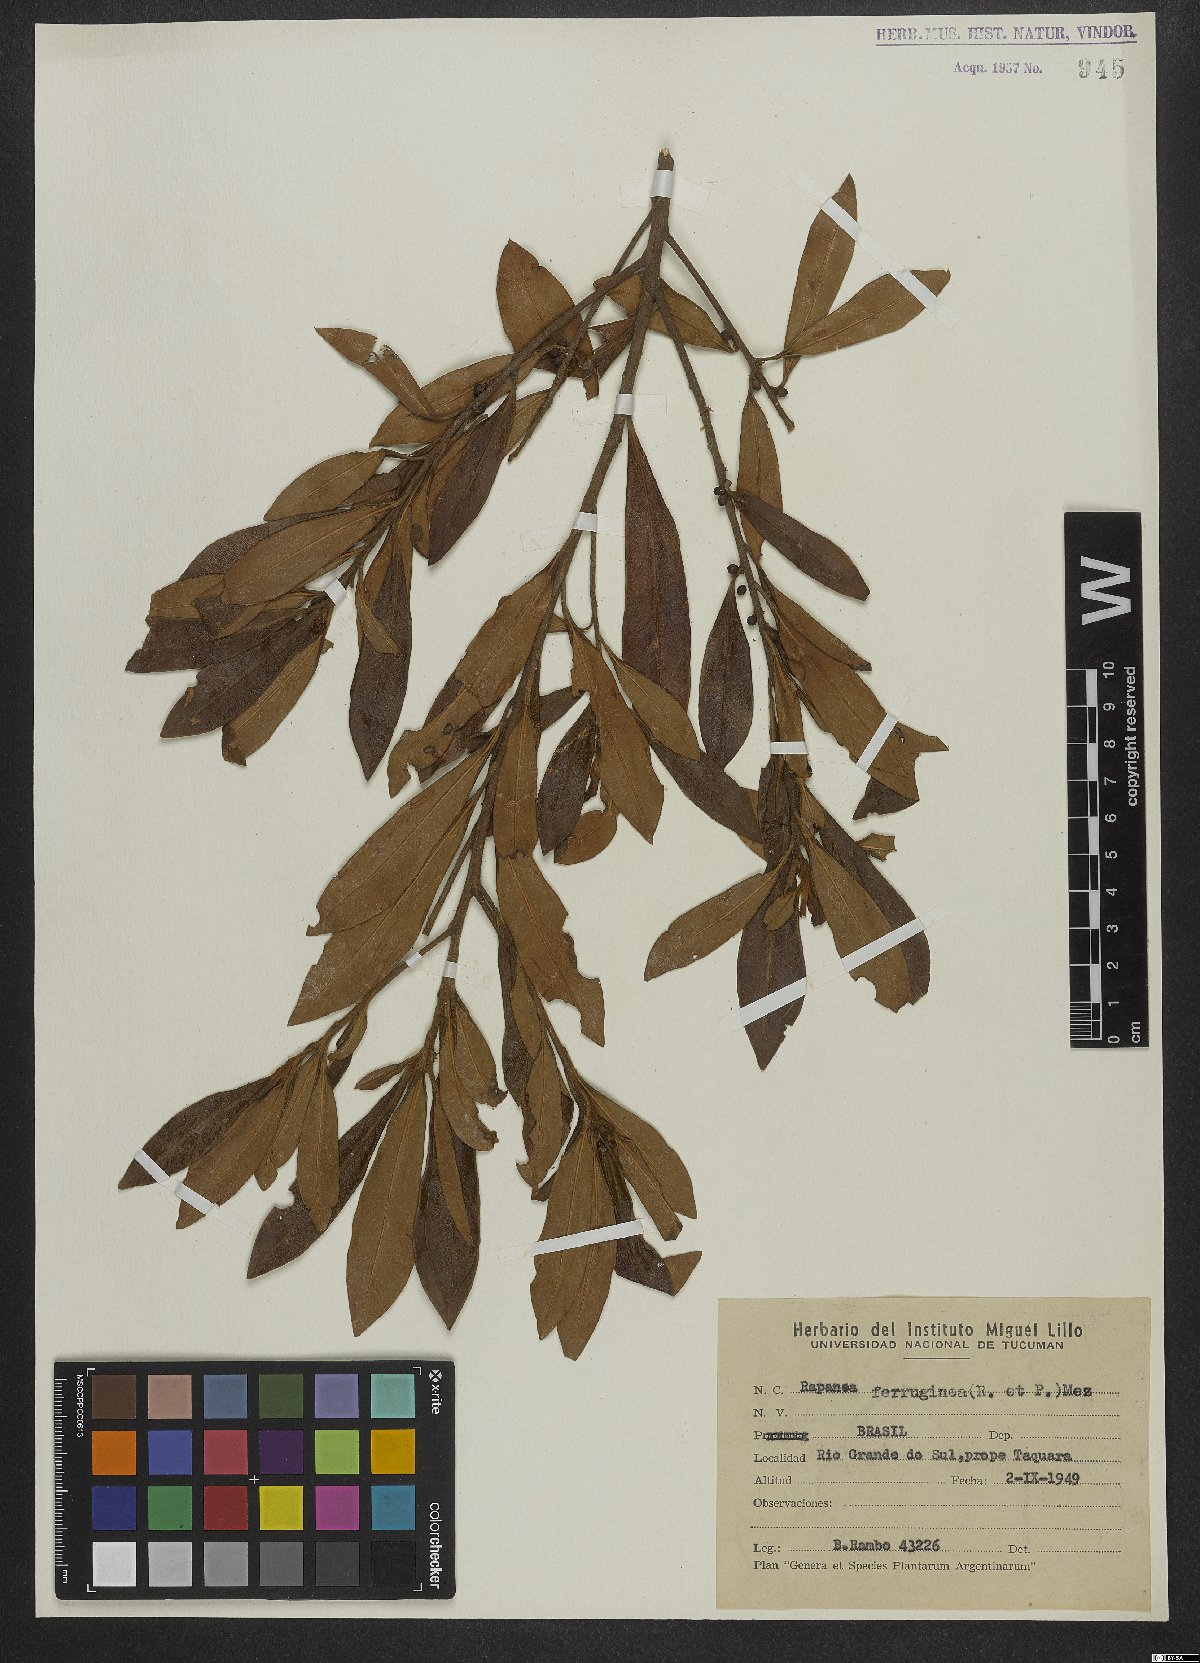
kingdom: Plantae
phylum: Tracheophyta
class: Magnoliopsida
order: Ericales
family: Primulaceae
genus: Myrsine
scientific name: Myrsine coriacea
